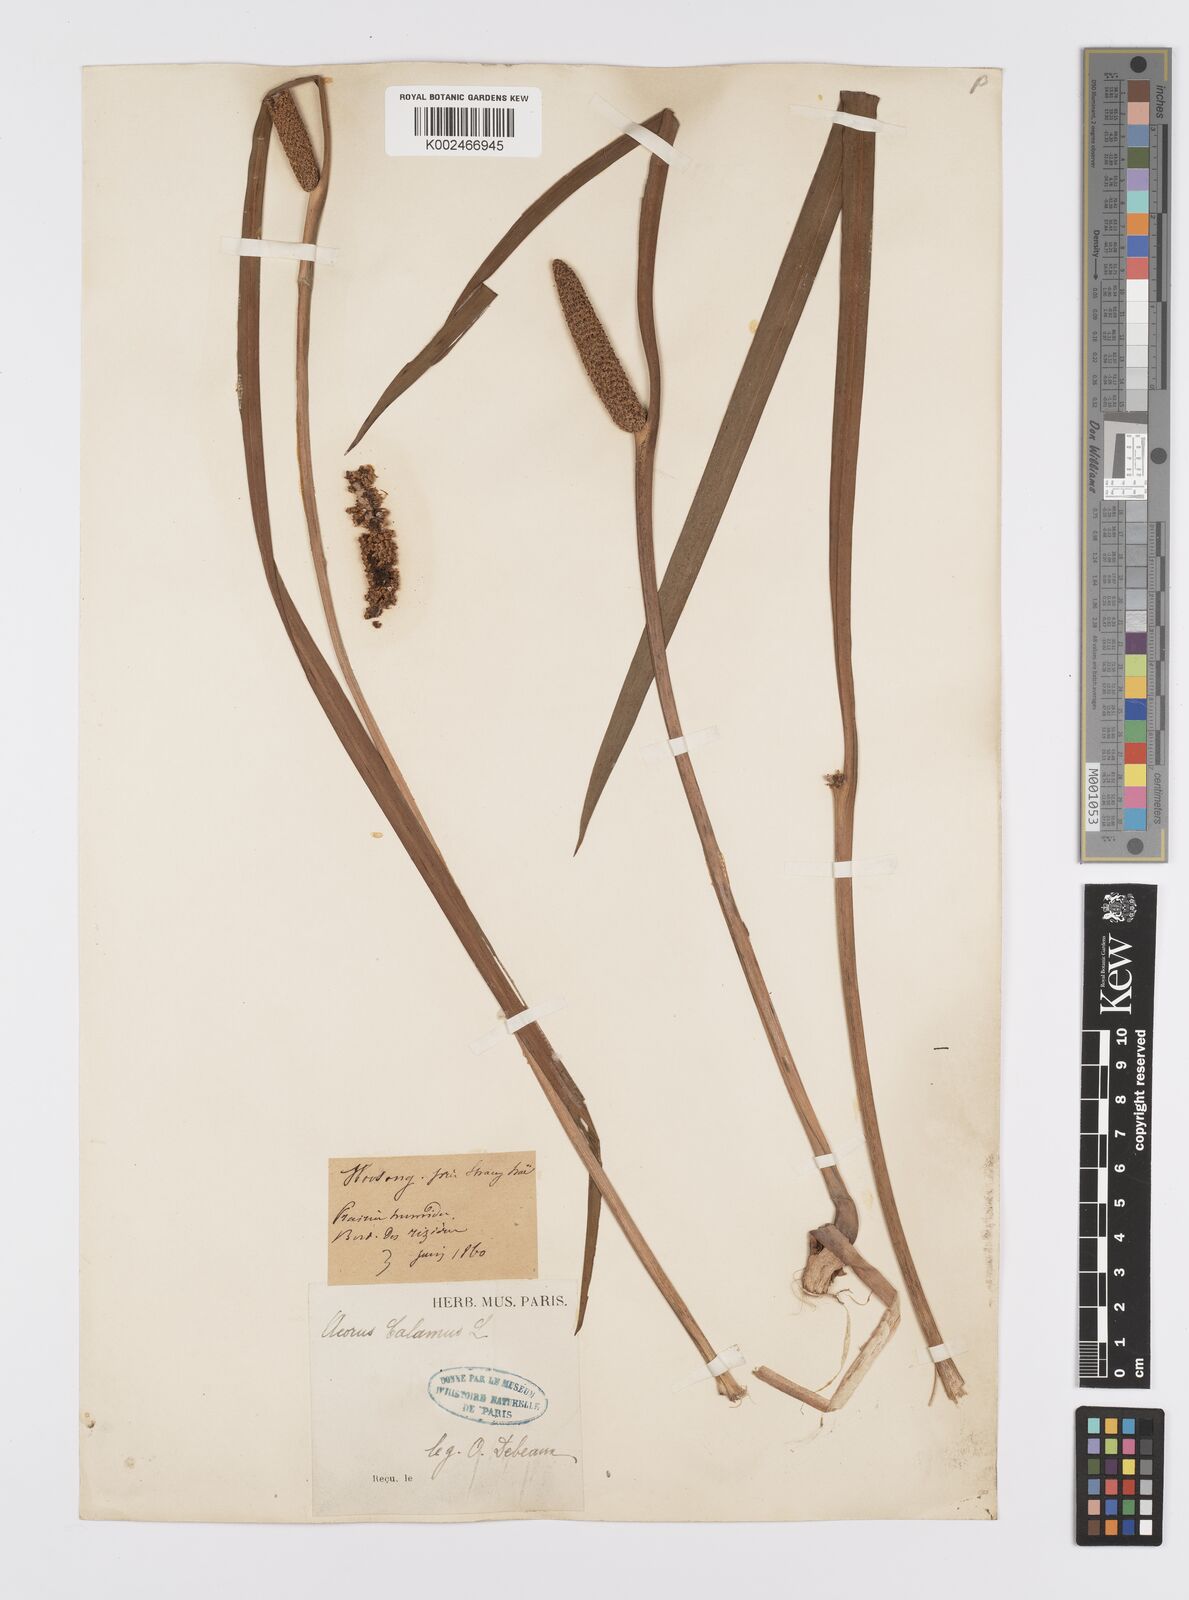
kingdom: Plantae
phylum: Tracheophyta
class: Liliopsida
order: Acorales
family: Acoraceae
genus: Acorus
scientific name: Acorus calamus
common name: Sweet-flag
